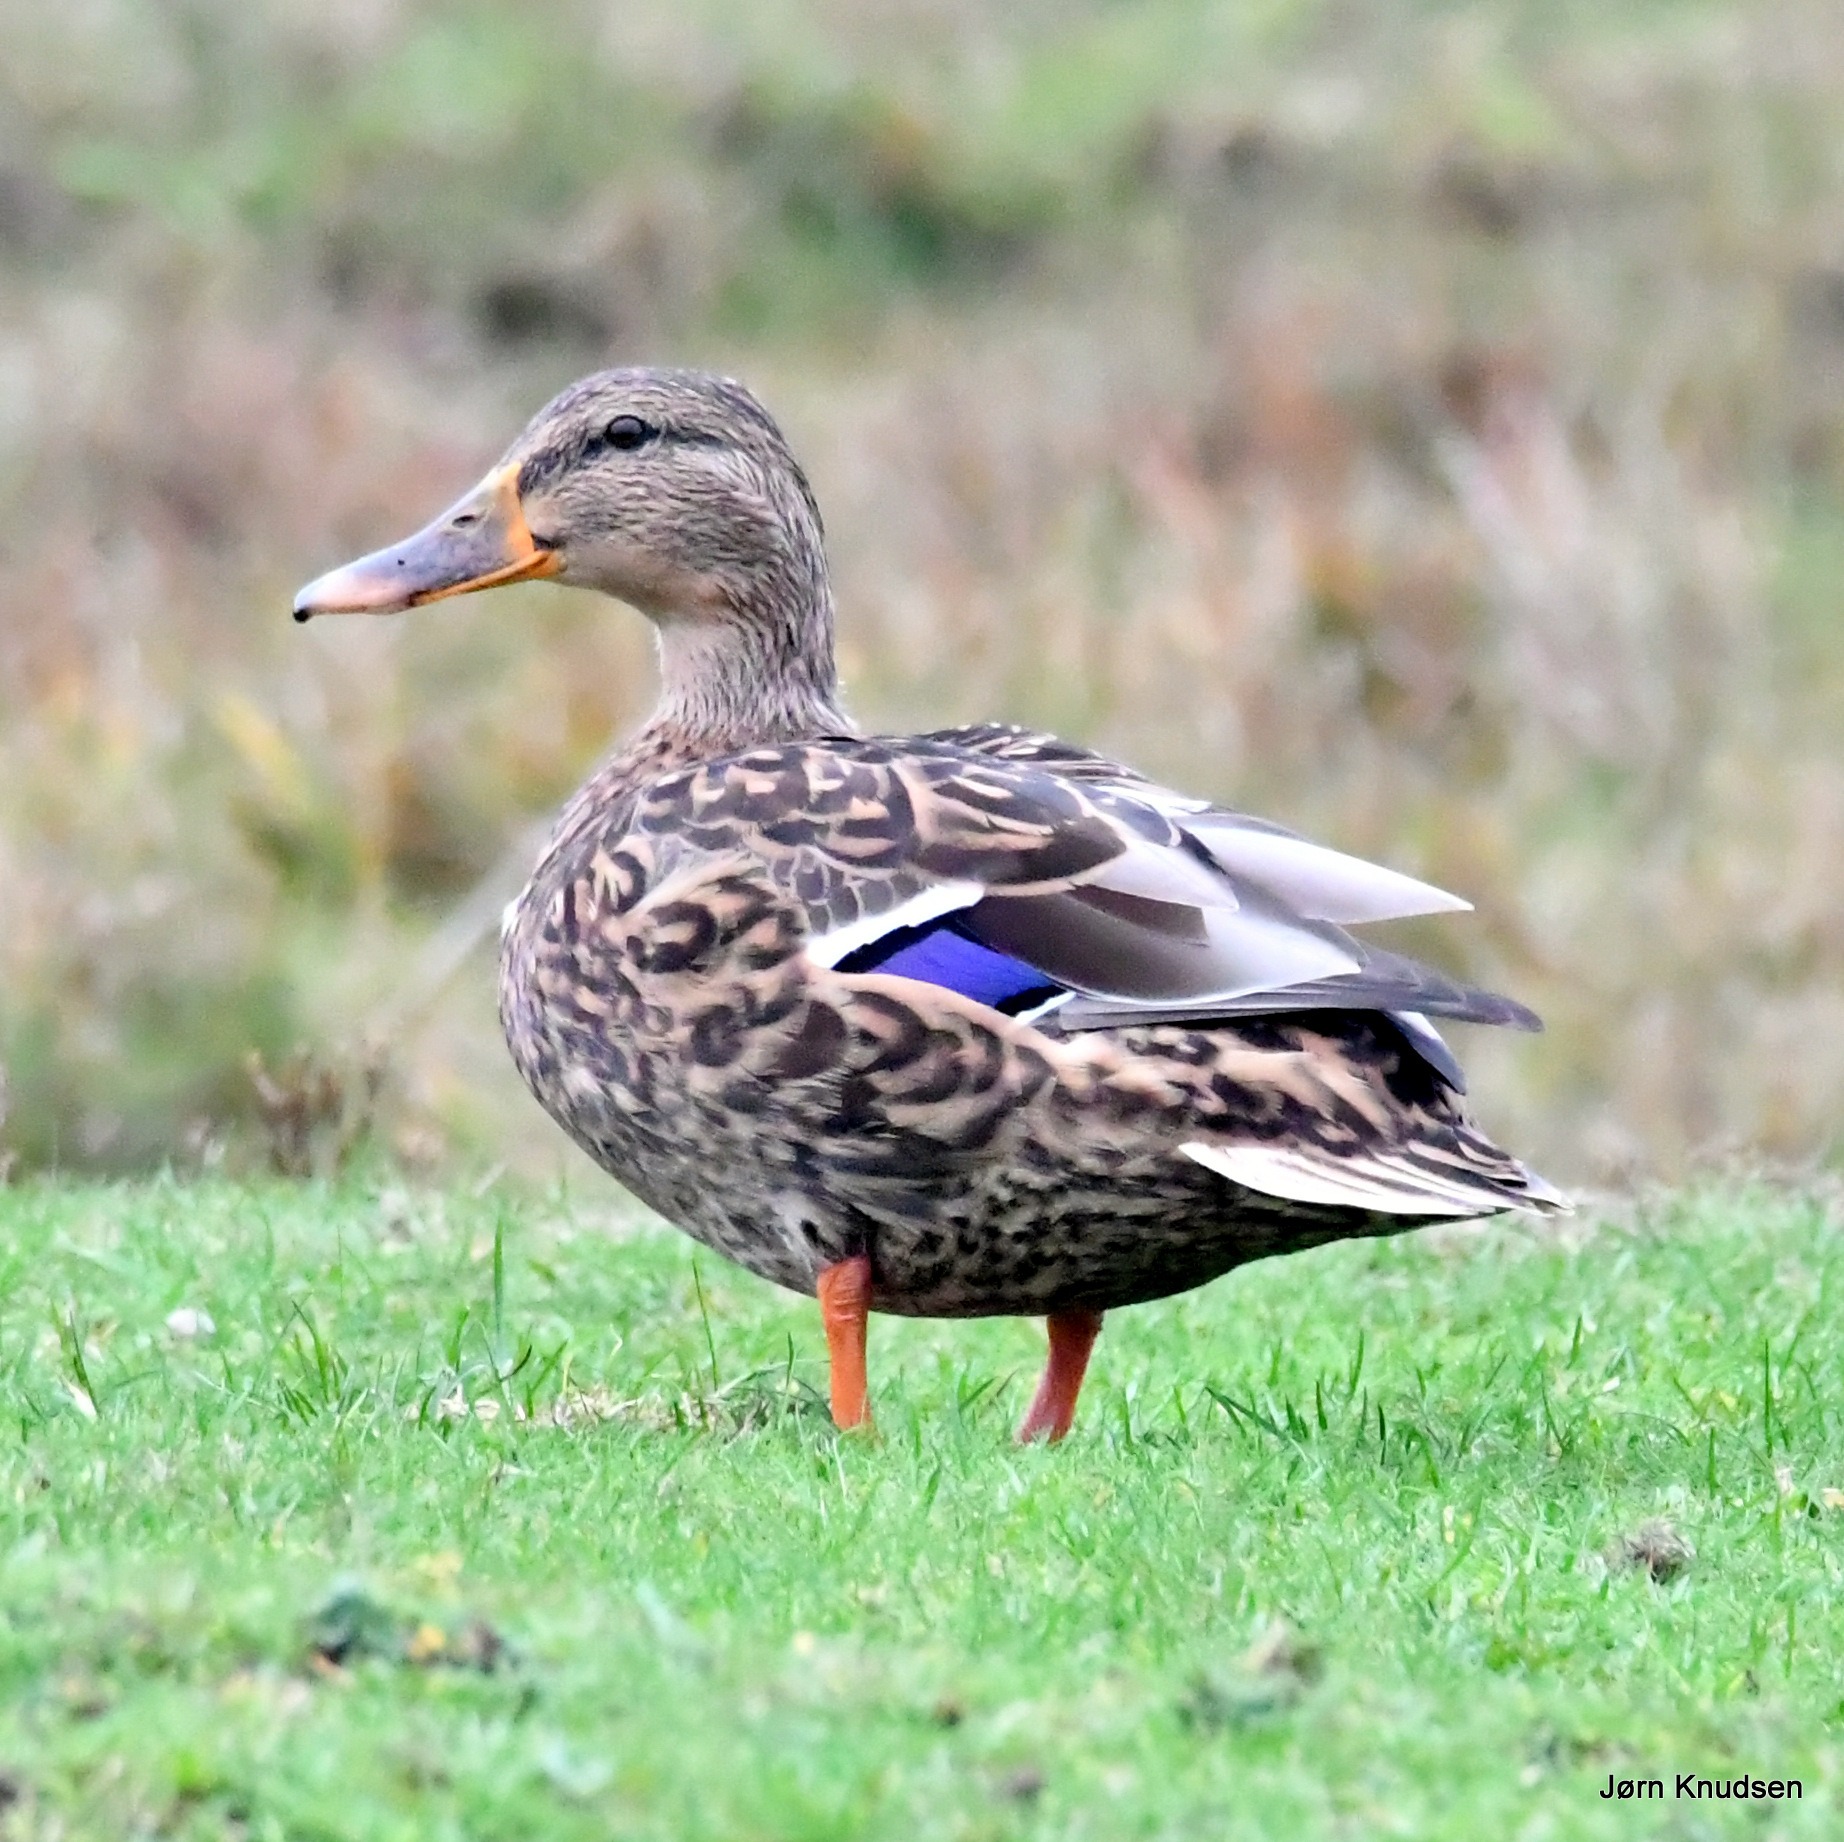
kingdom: Animalia
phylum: Chordata
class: Aves
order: Anseriformes
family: Anatidae
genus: Anas
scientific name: Anas platyrhynchos
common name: Gråand
